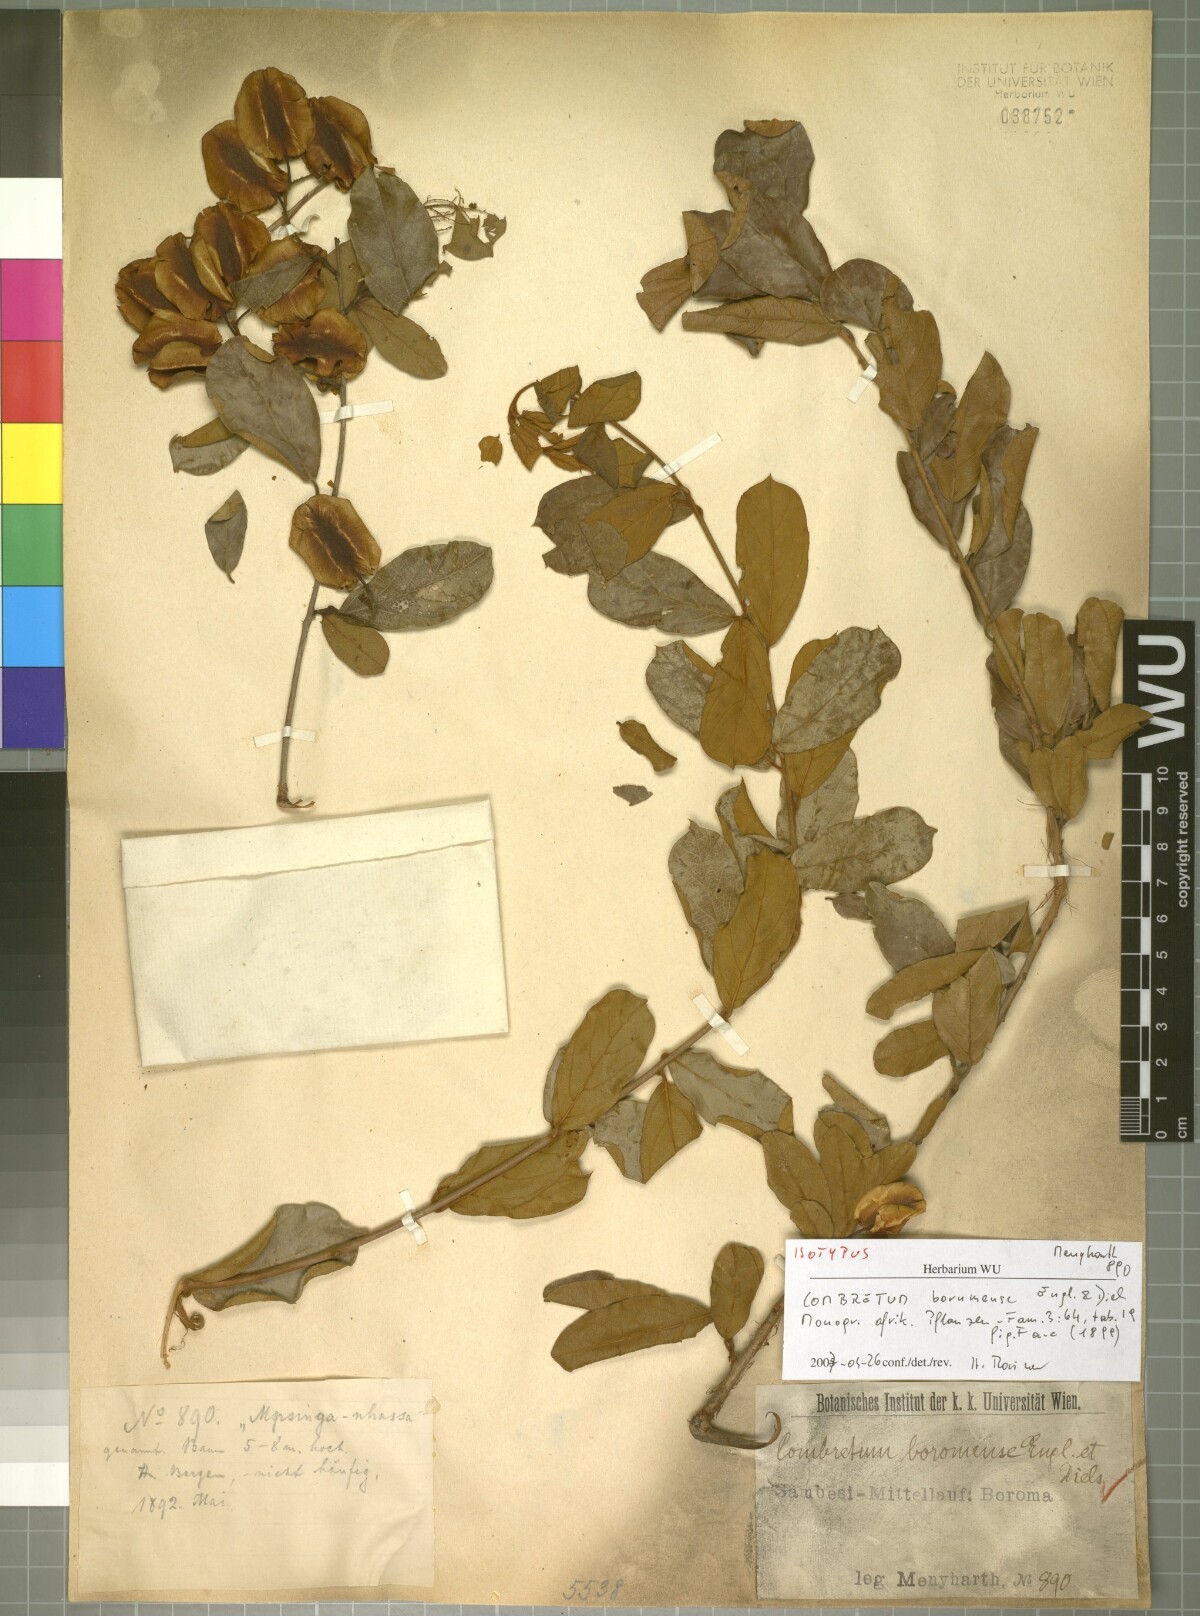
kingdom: Plantae
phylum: Tracheophyta
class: Magnoliopsida
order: Myrtales
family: Combretaceae
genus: Combretum
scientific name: Combretum hereroense
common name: Russet bushwillow
